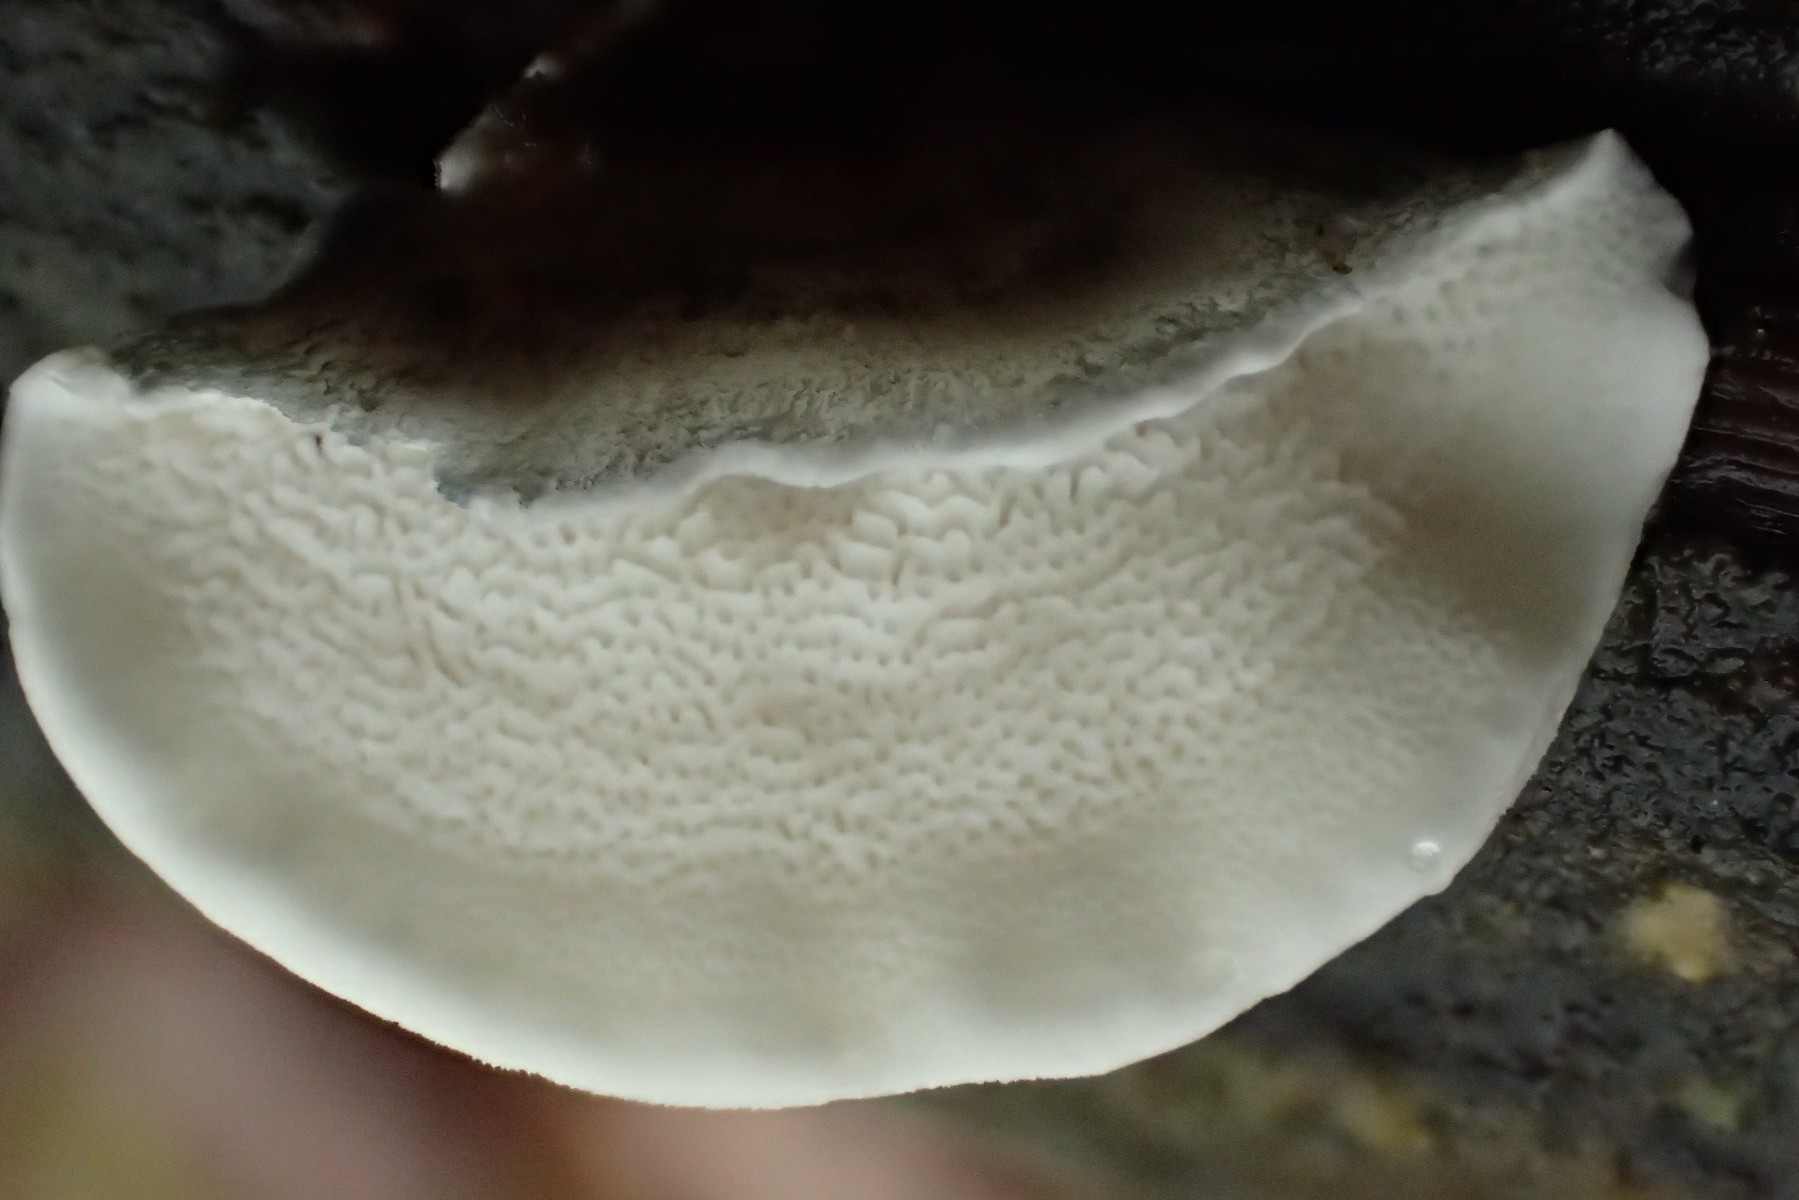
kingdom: Fungi
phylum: Basidiomycota
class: Agaricomycetes
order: Polyporales
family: Polyporaceae
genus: Cyanosporus
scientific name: Cyanosporus alni
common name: blegblå kødporesvamp
